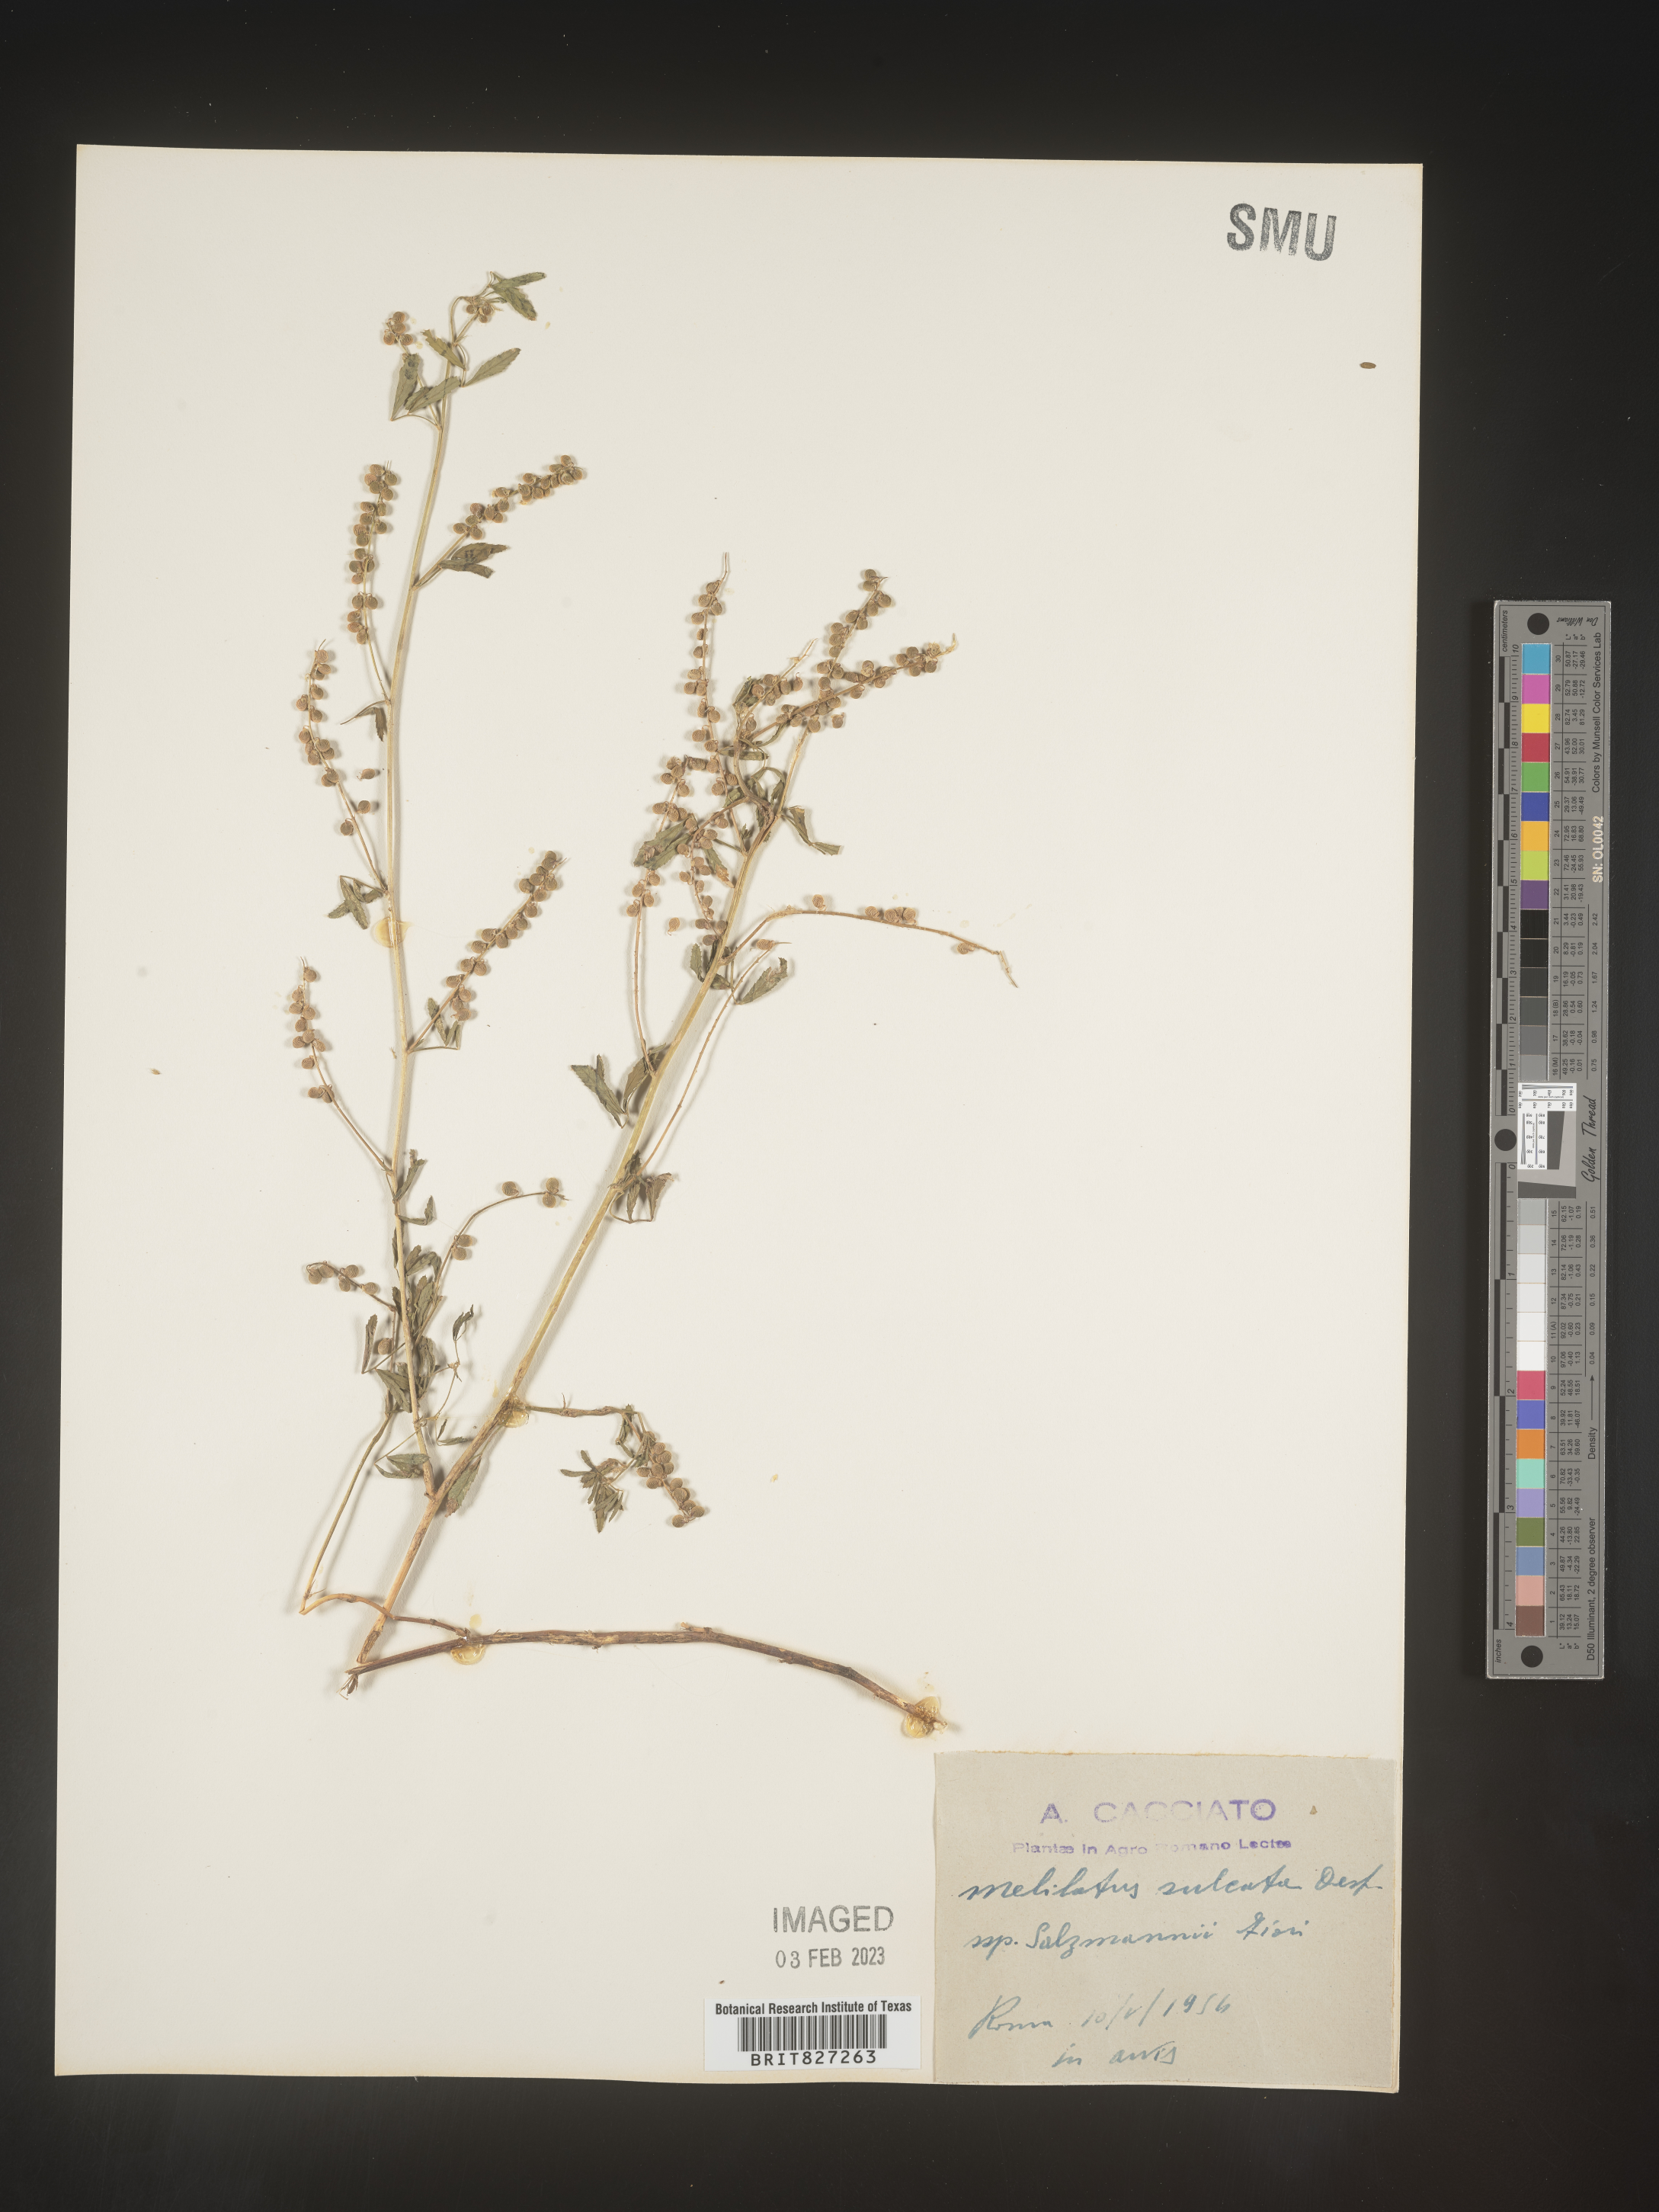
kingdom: Plantae
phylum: Tracheophyta
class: Magnoliopsida
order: Fabales
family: Fabaceae
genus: Melilotus
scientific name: Melilotus
